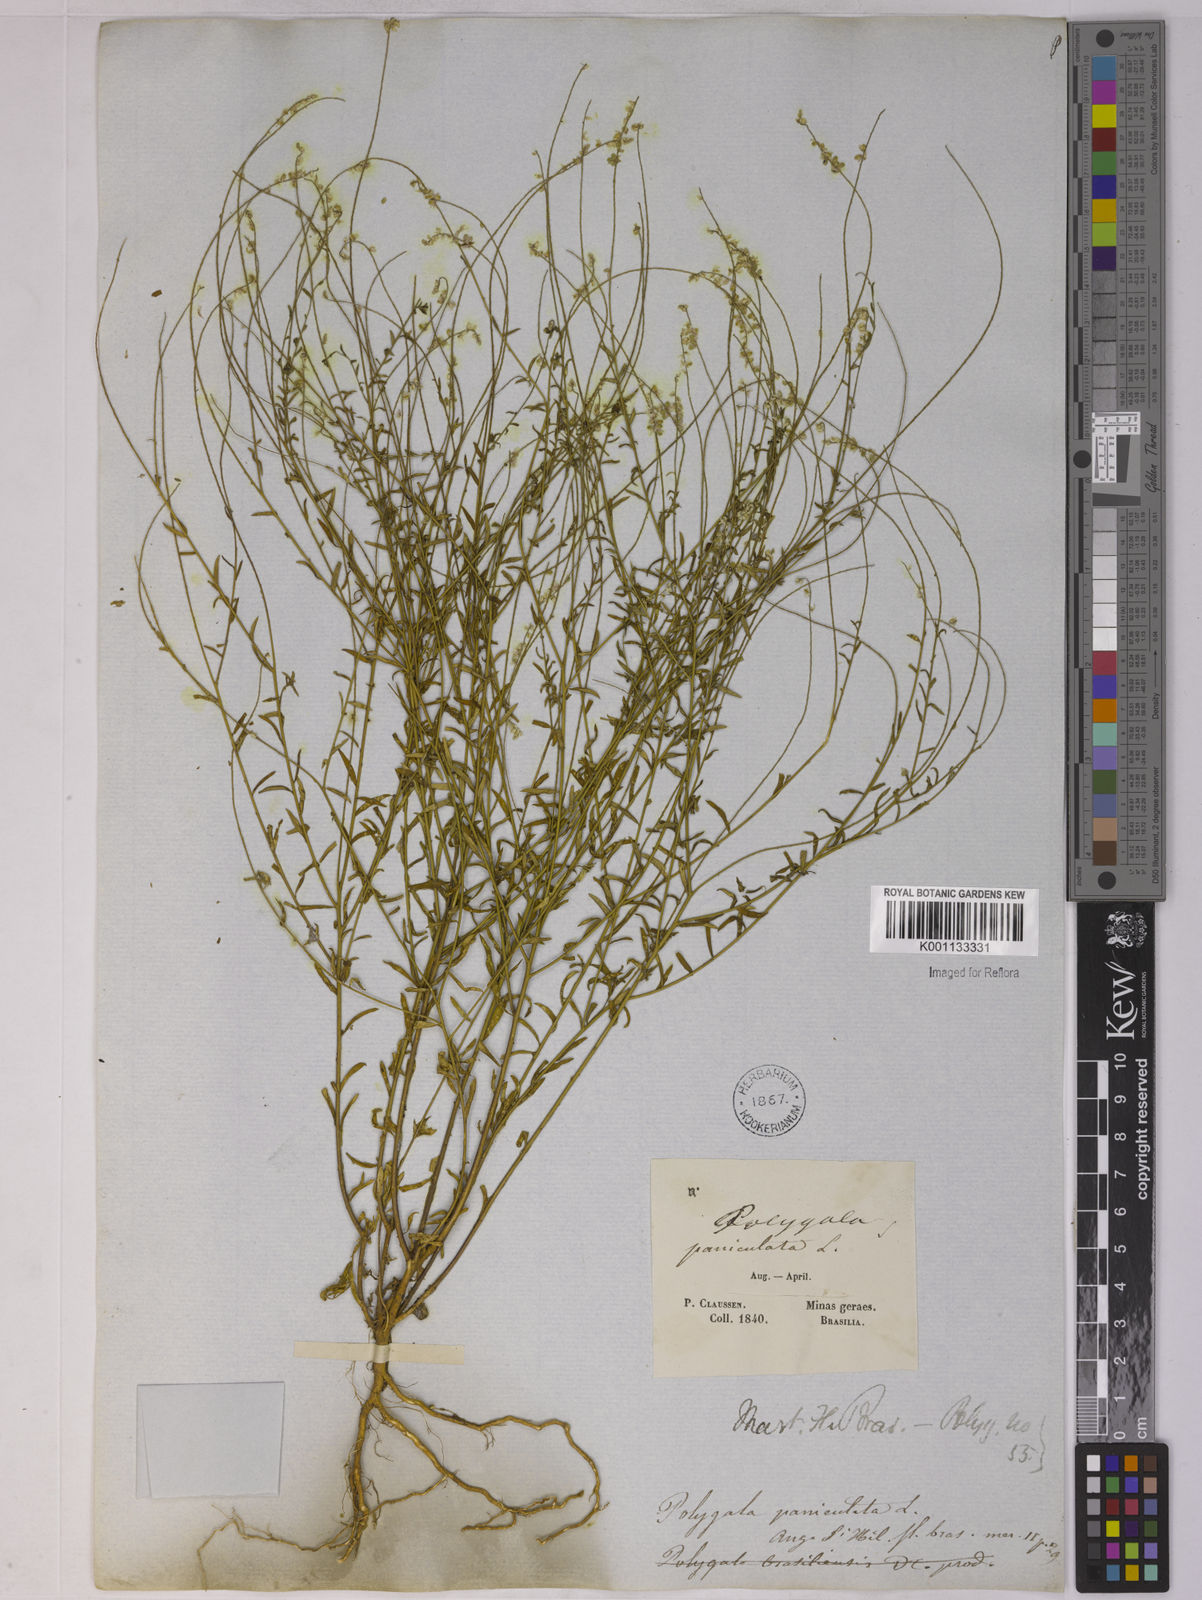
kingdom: Plantae
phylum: Tracheophyta
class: Magnoliopsida
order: Fabales
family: Polygalaceae
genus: Polygala
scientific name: Polygala paniculata
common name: Orosne
